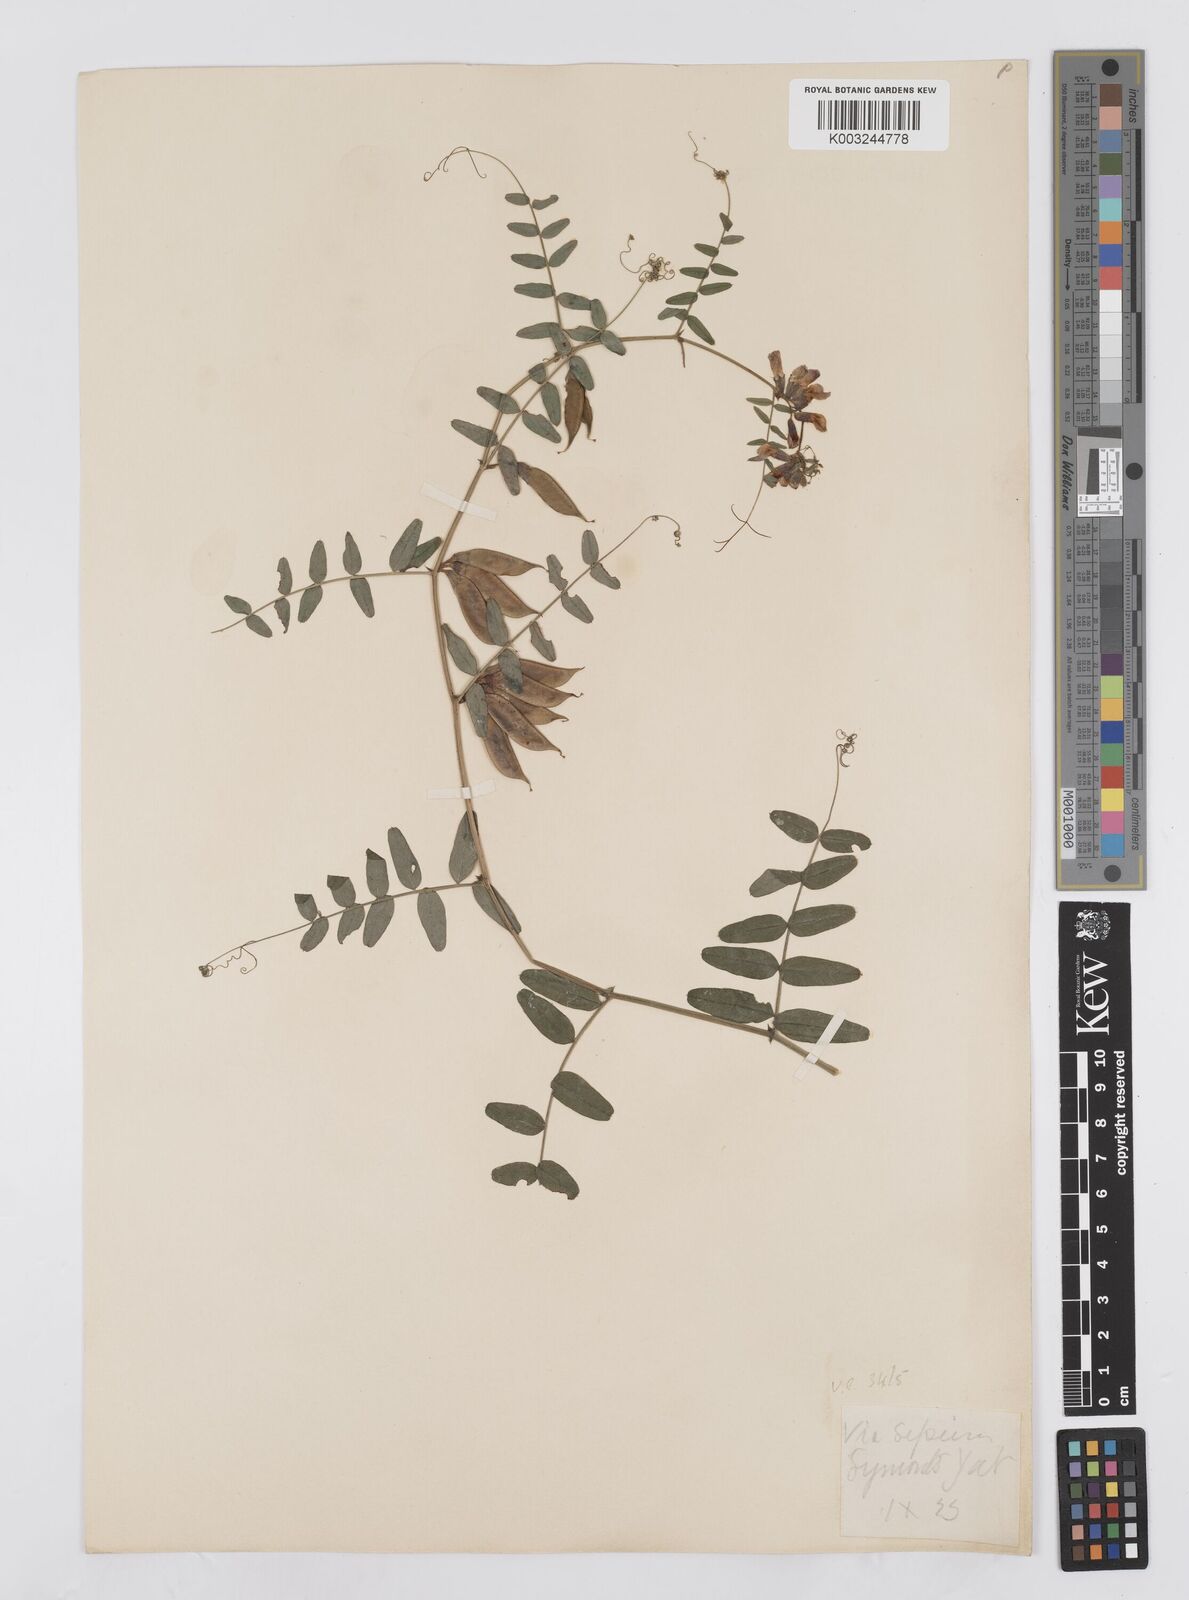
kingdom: Plantae
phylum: Tracheophyta
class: Magnoliopsida
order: Fabales
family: Fabaceae
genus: Vicia
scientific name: Vicia sepium
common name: Bush vetch
